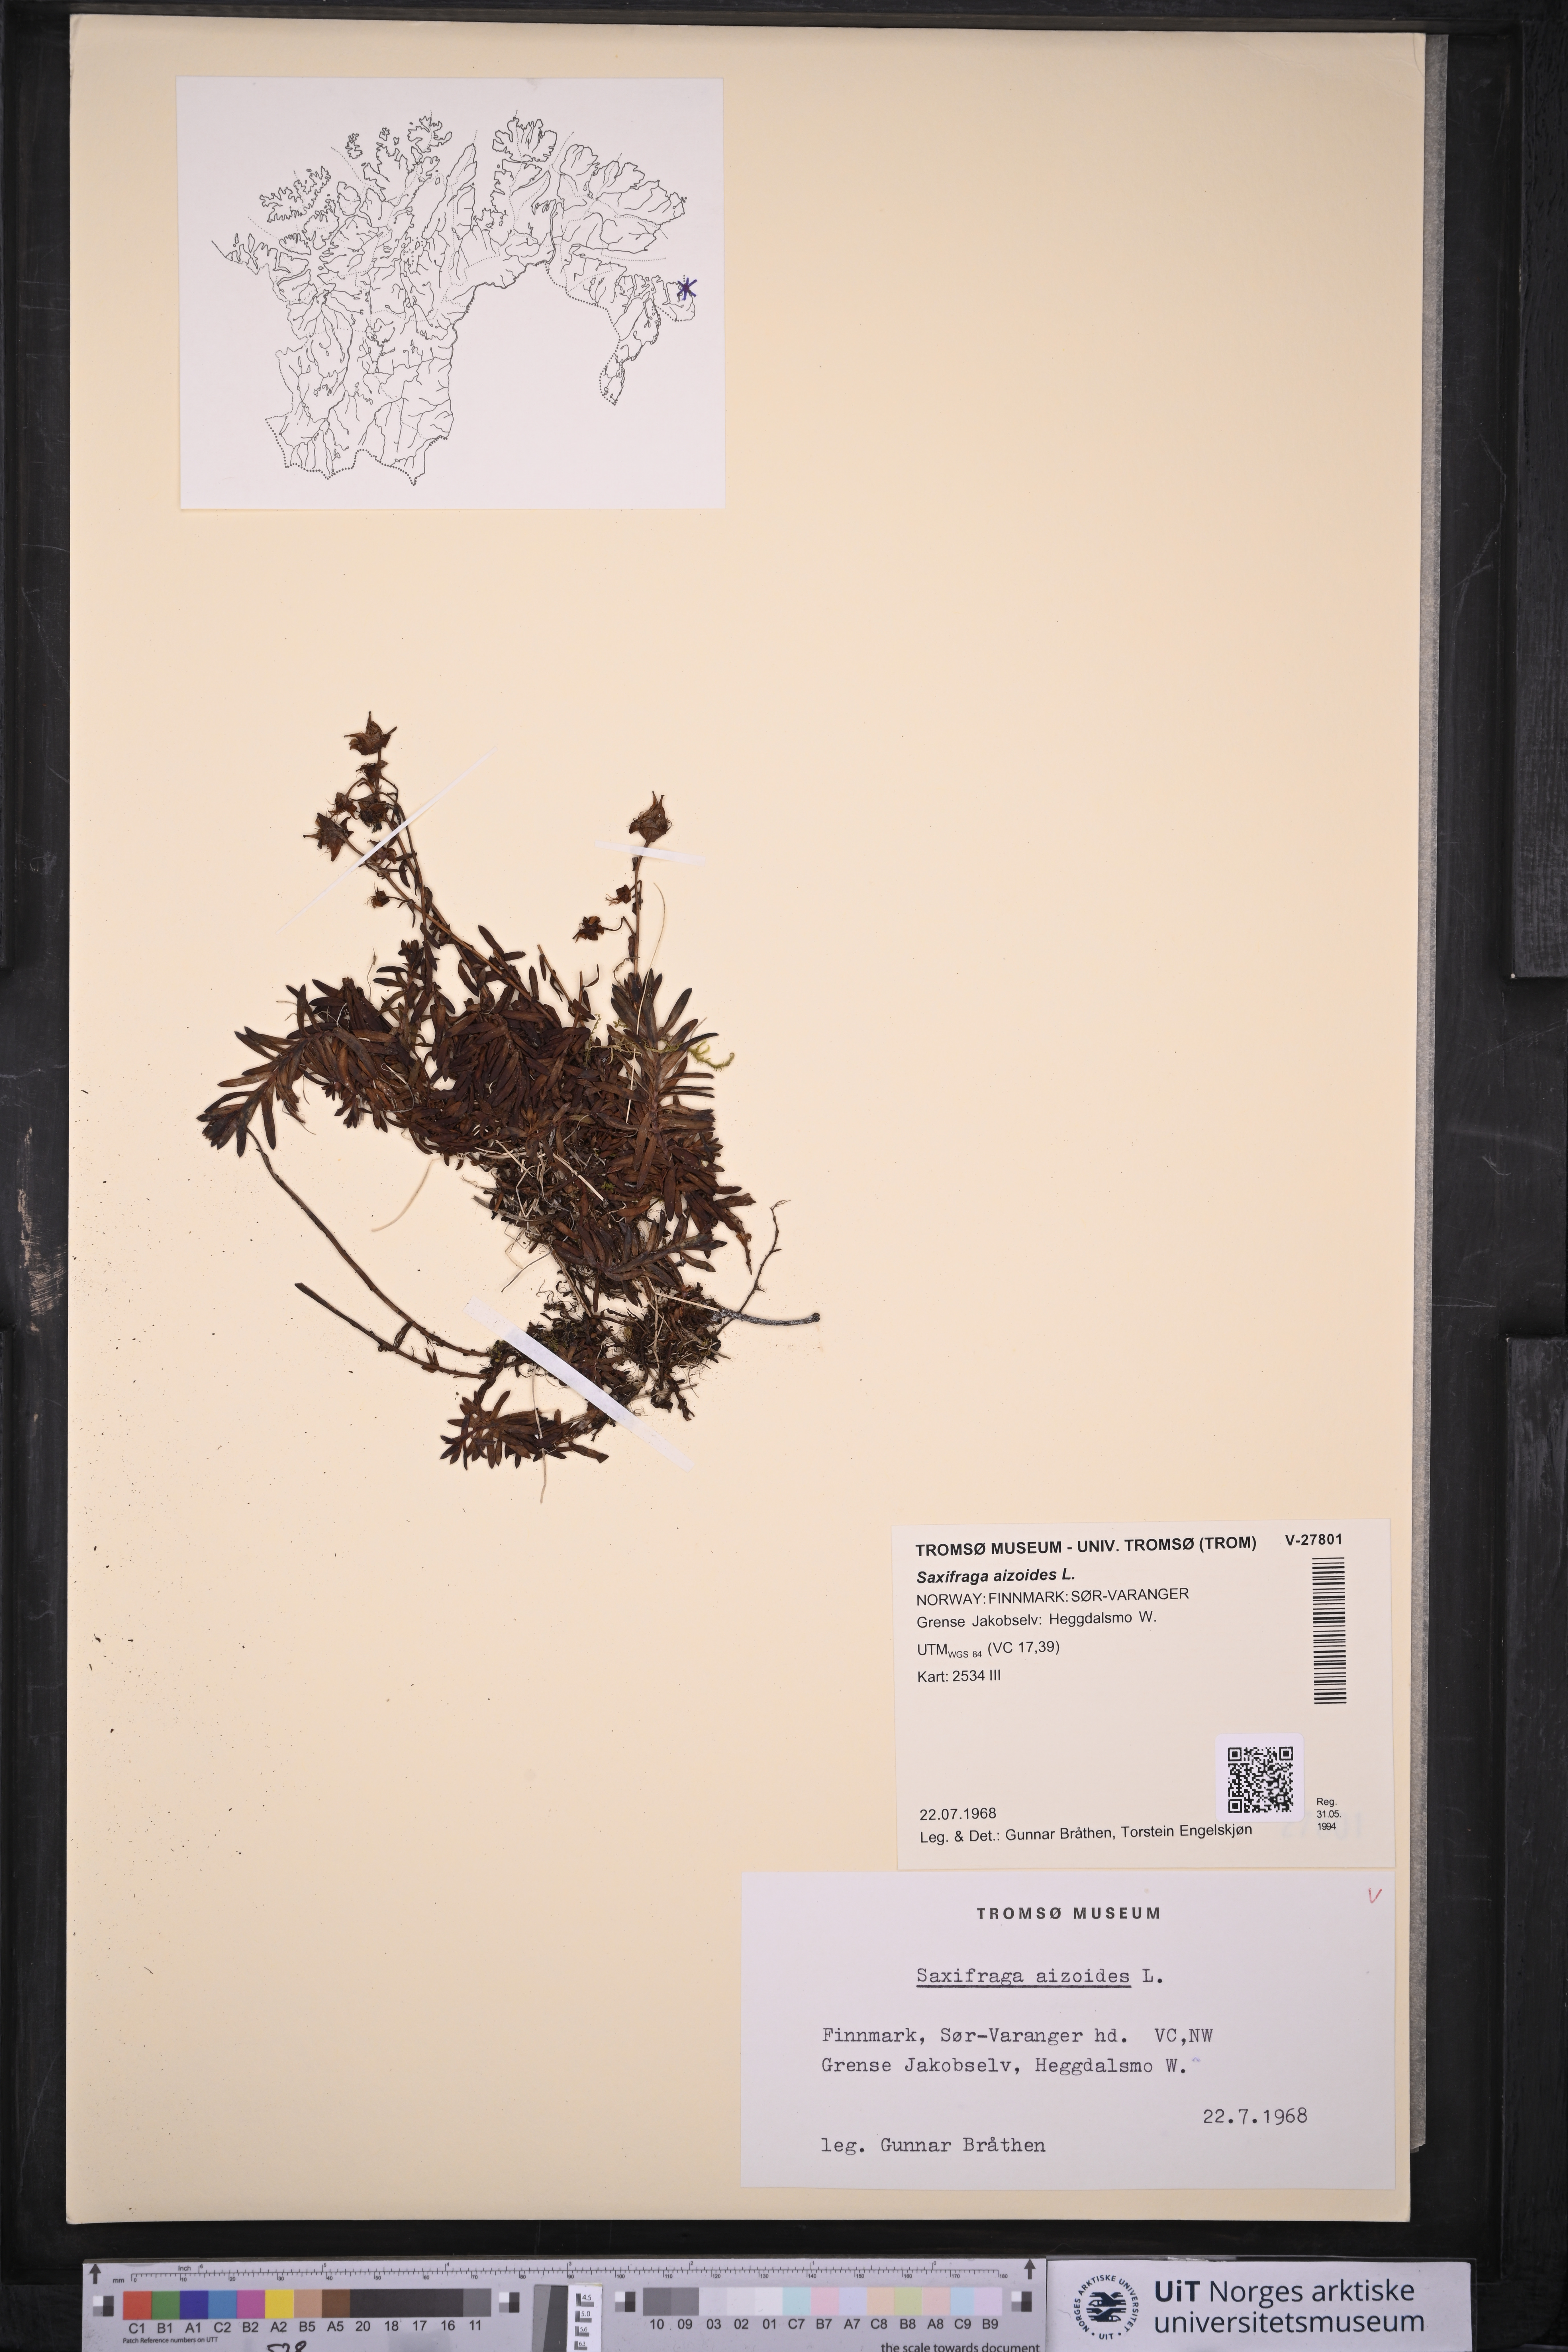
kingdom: Plantae
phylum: Tracheophyta
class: Magnoliopsida
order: Saxifragales
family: Saxifragaceae
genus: Saxifraga
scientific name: Saxifraga aizoides
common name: Yellow mountain saxifrage
